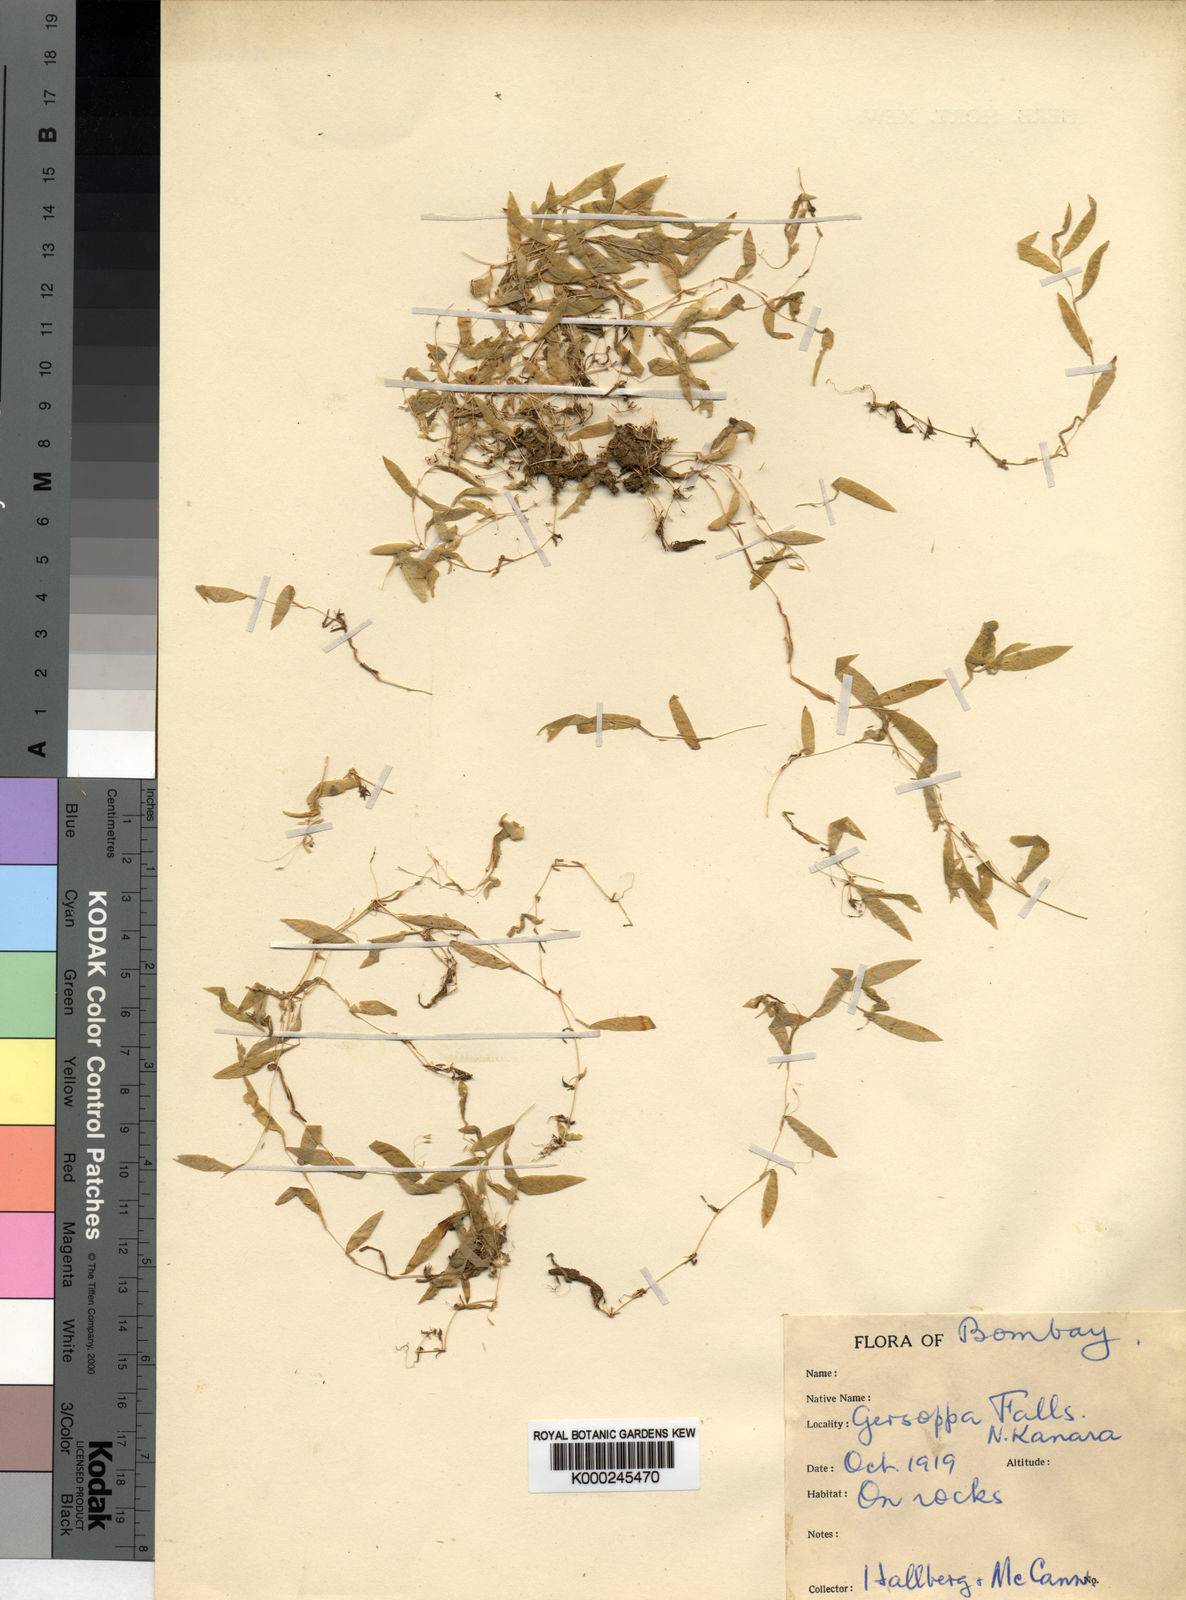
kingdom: Plantae
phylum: Tracheophyta
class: Liliopsida
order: Poales
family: Poaceae
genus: Hubbardia
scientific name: Hubbardia heptaneuron
